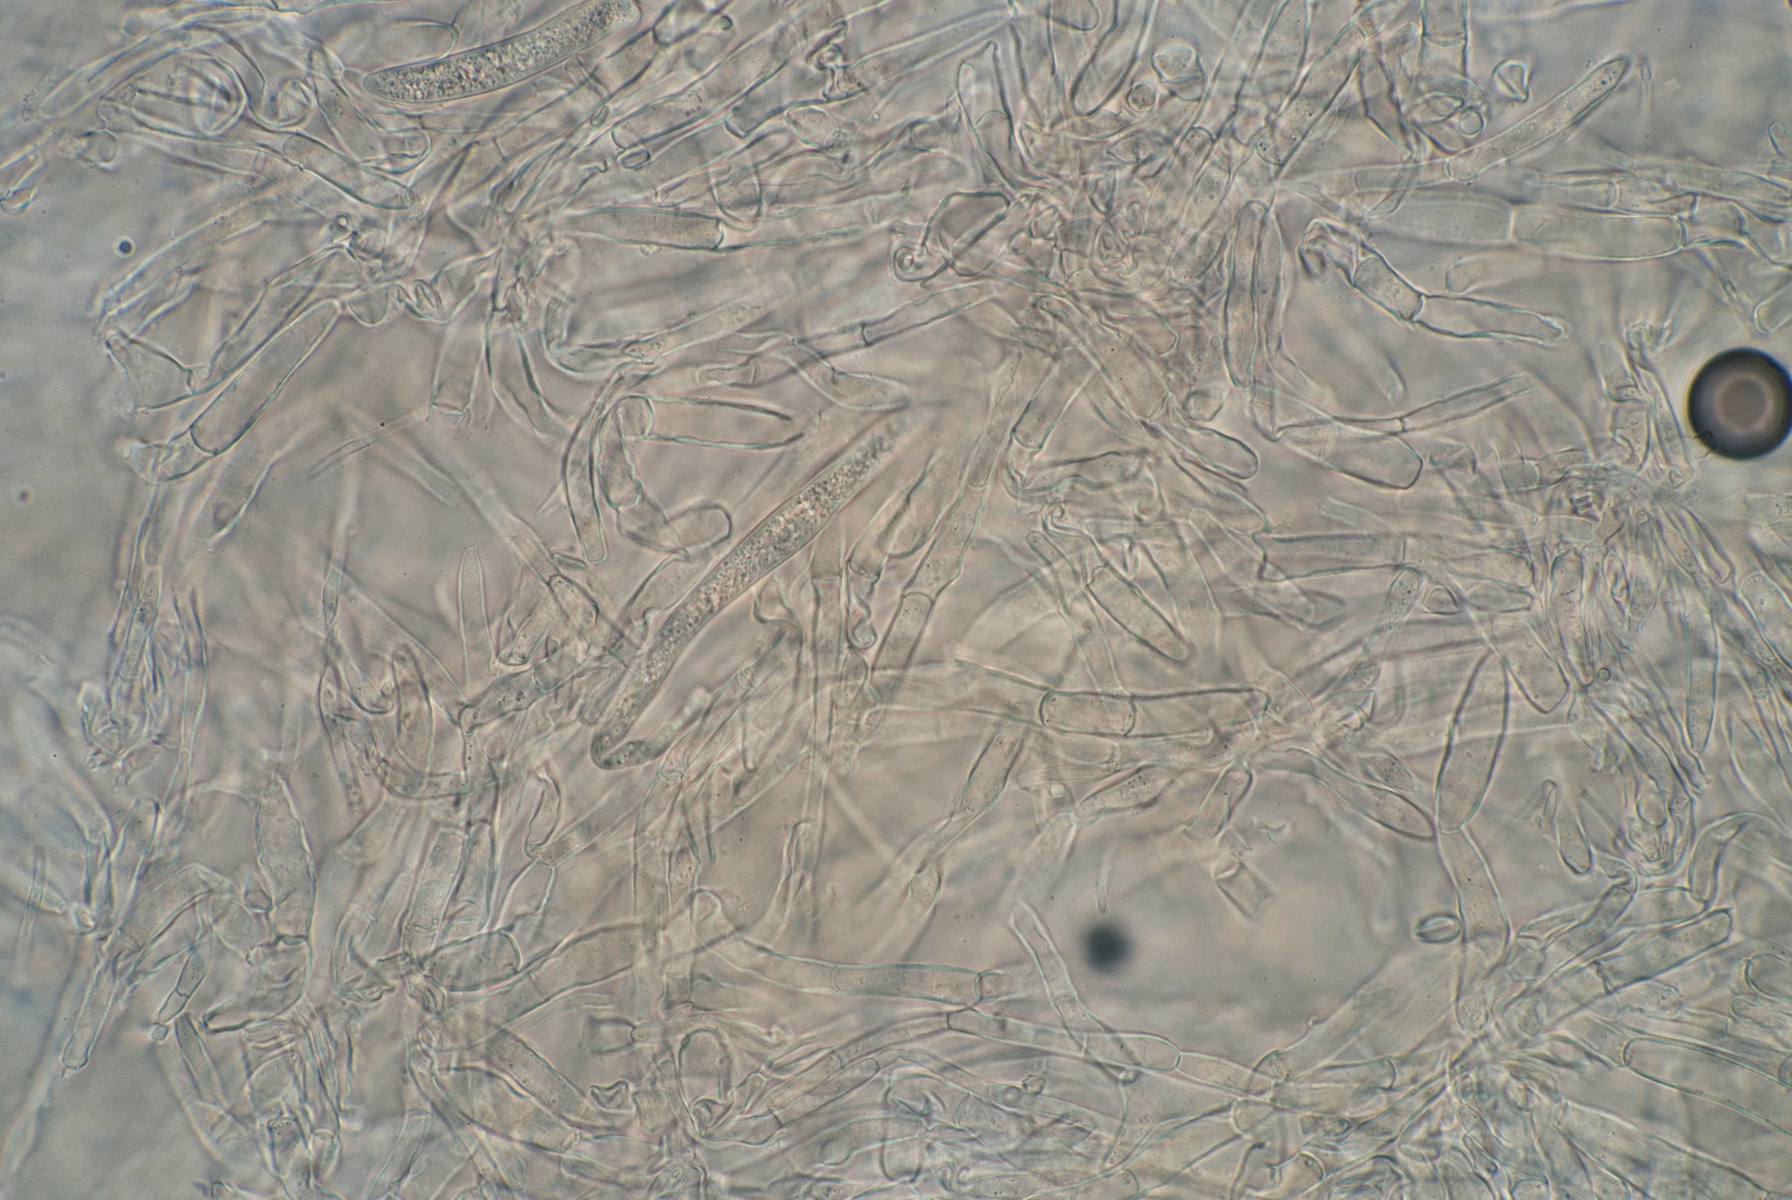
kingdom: Fungi
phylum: Ascomycota
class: Leotiomycetes
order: Helotiales
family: Helotiaceae
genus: Hymenoscyphus
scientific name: Hymenoscyphus
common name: stilkskive
